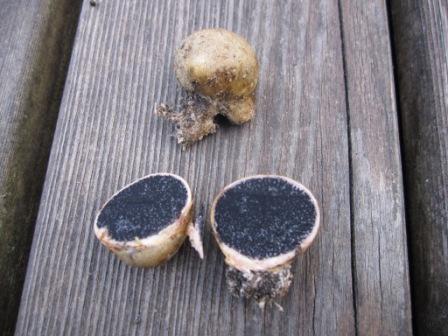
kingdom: Fungi
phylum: Basidiomycota
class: Agaricomycetes
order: Boletales
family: Sclerodermataceae
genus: Scleroderma
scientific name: Scleroderma bovista
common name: bovist-bruskbold
